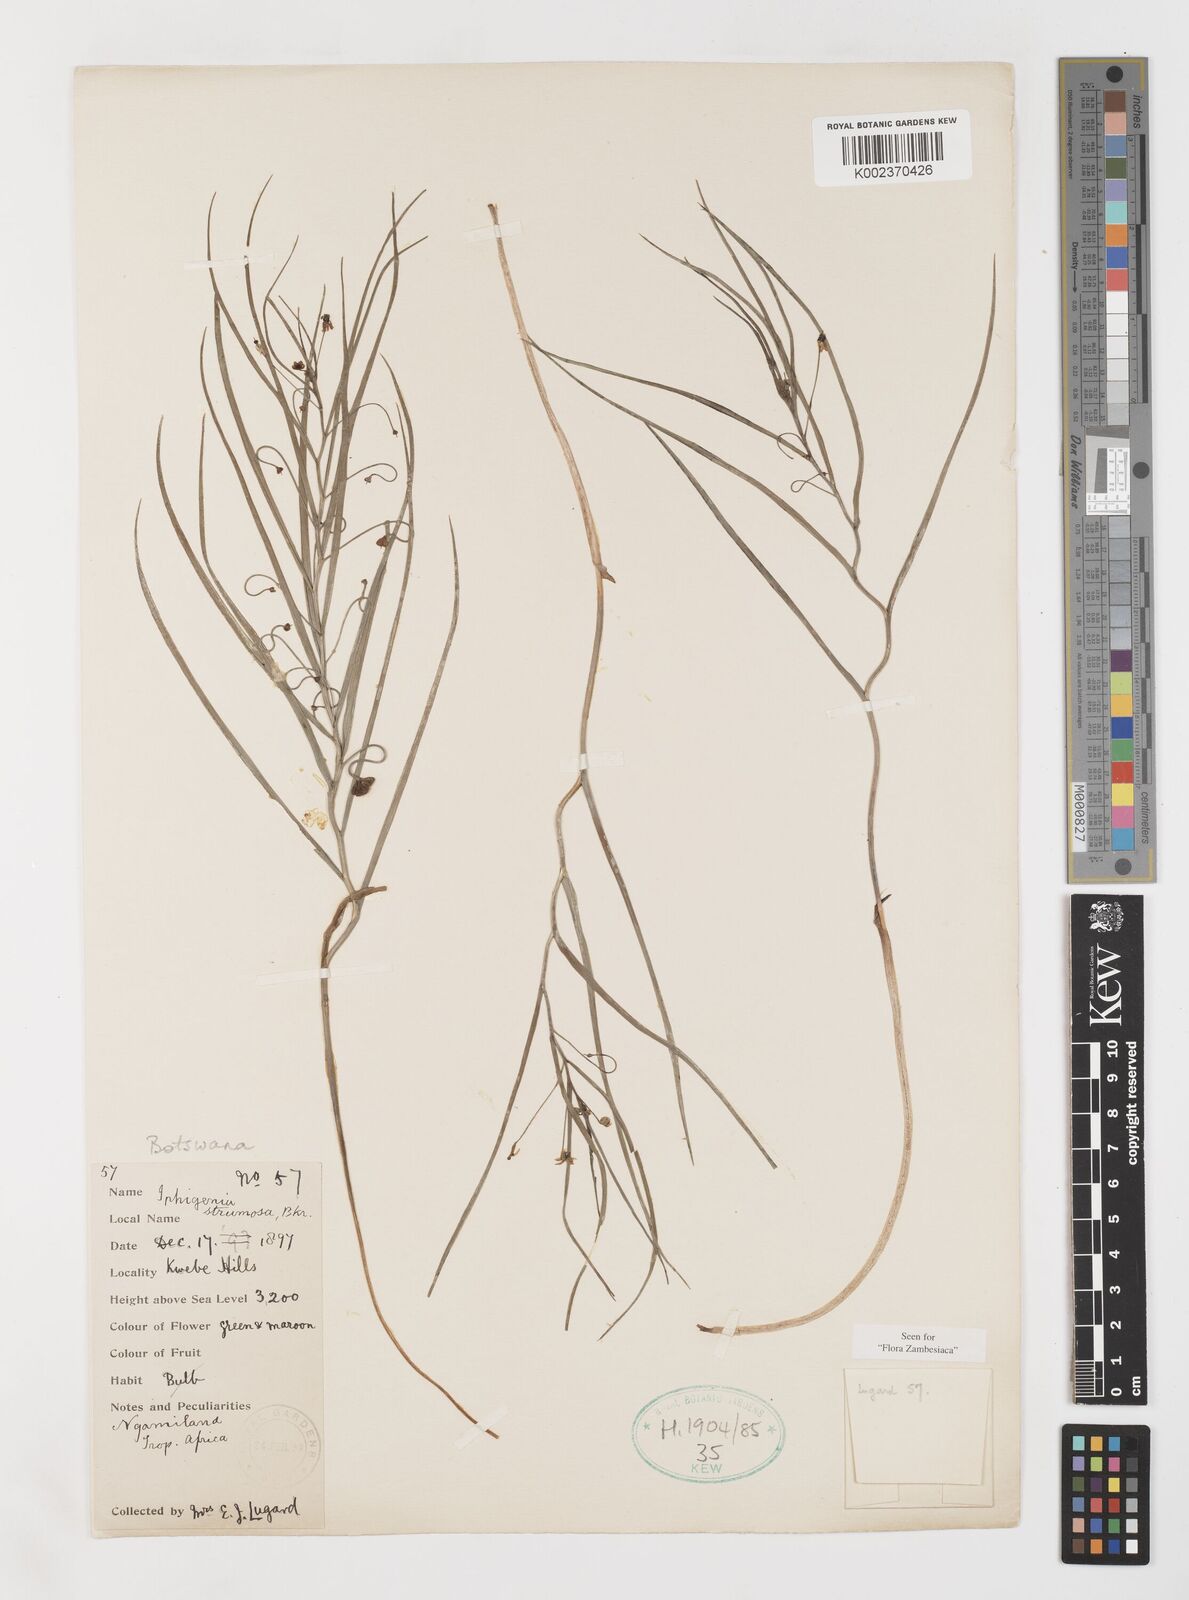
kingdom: Plantae
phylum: Tracheophyta
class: Liliopsida
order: Liliales
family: Colchicaceae
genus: Camptorrhiza
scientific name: Camptorrhiza strumosa
